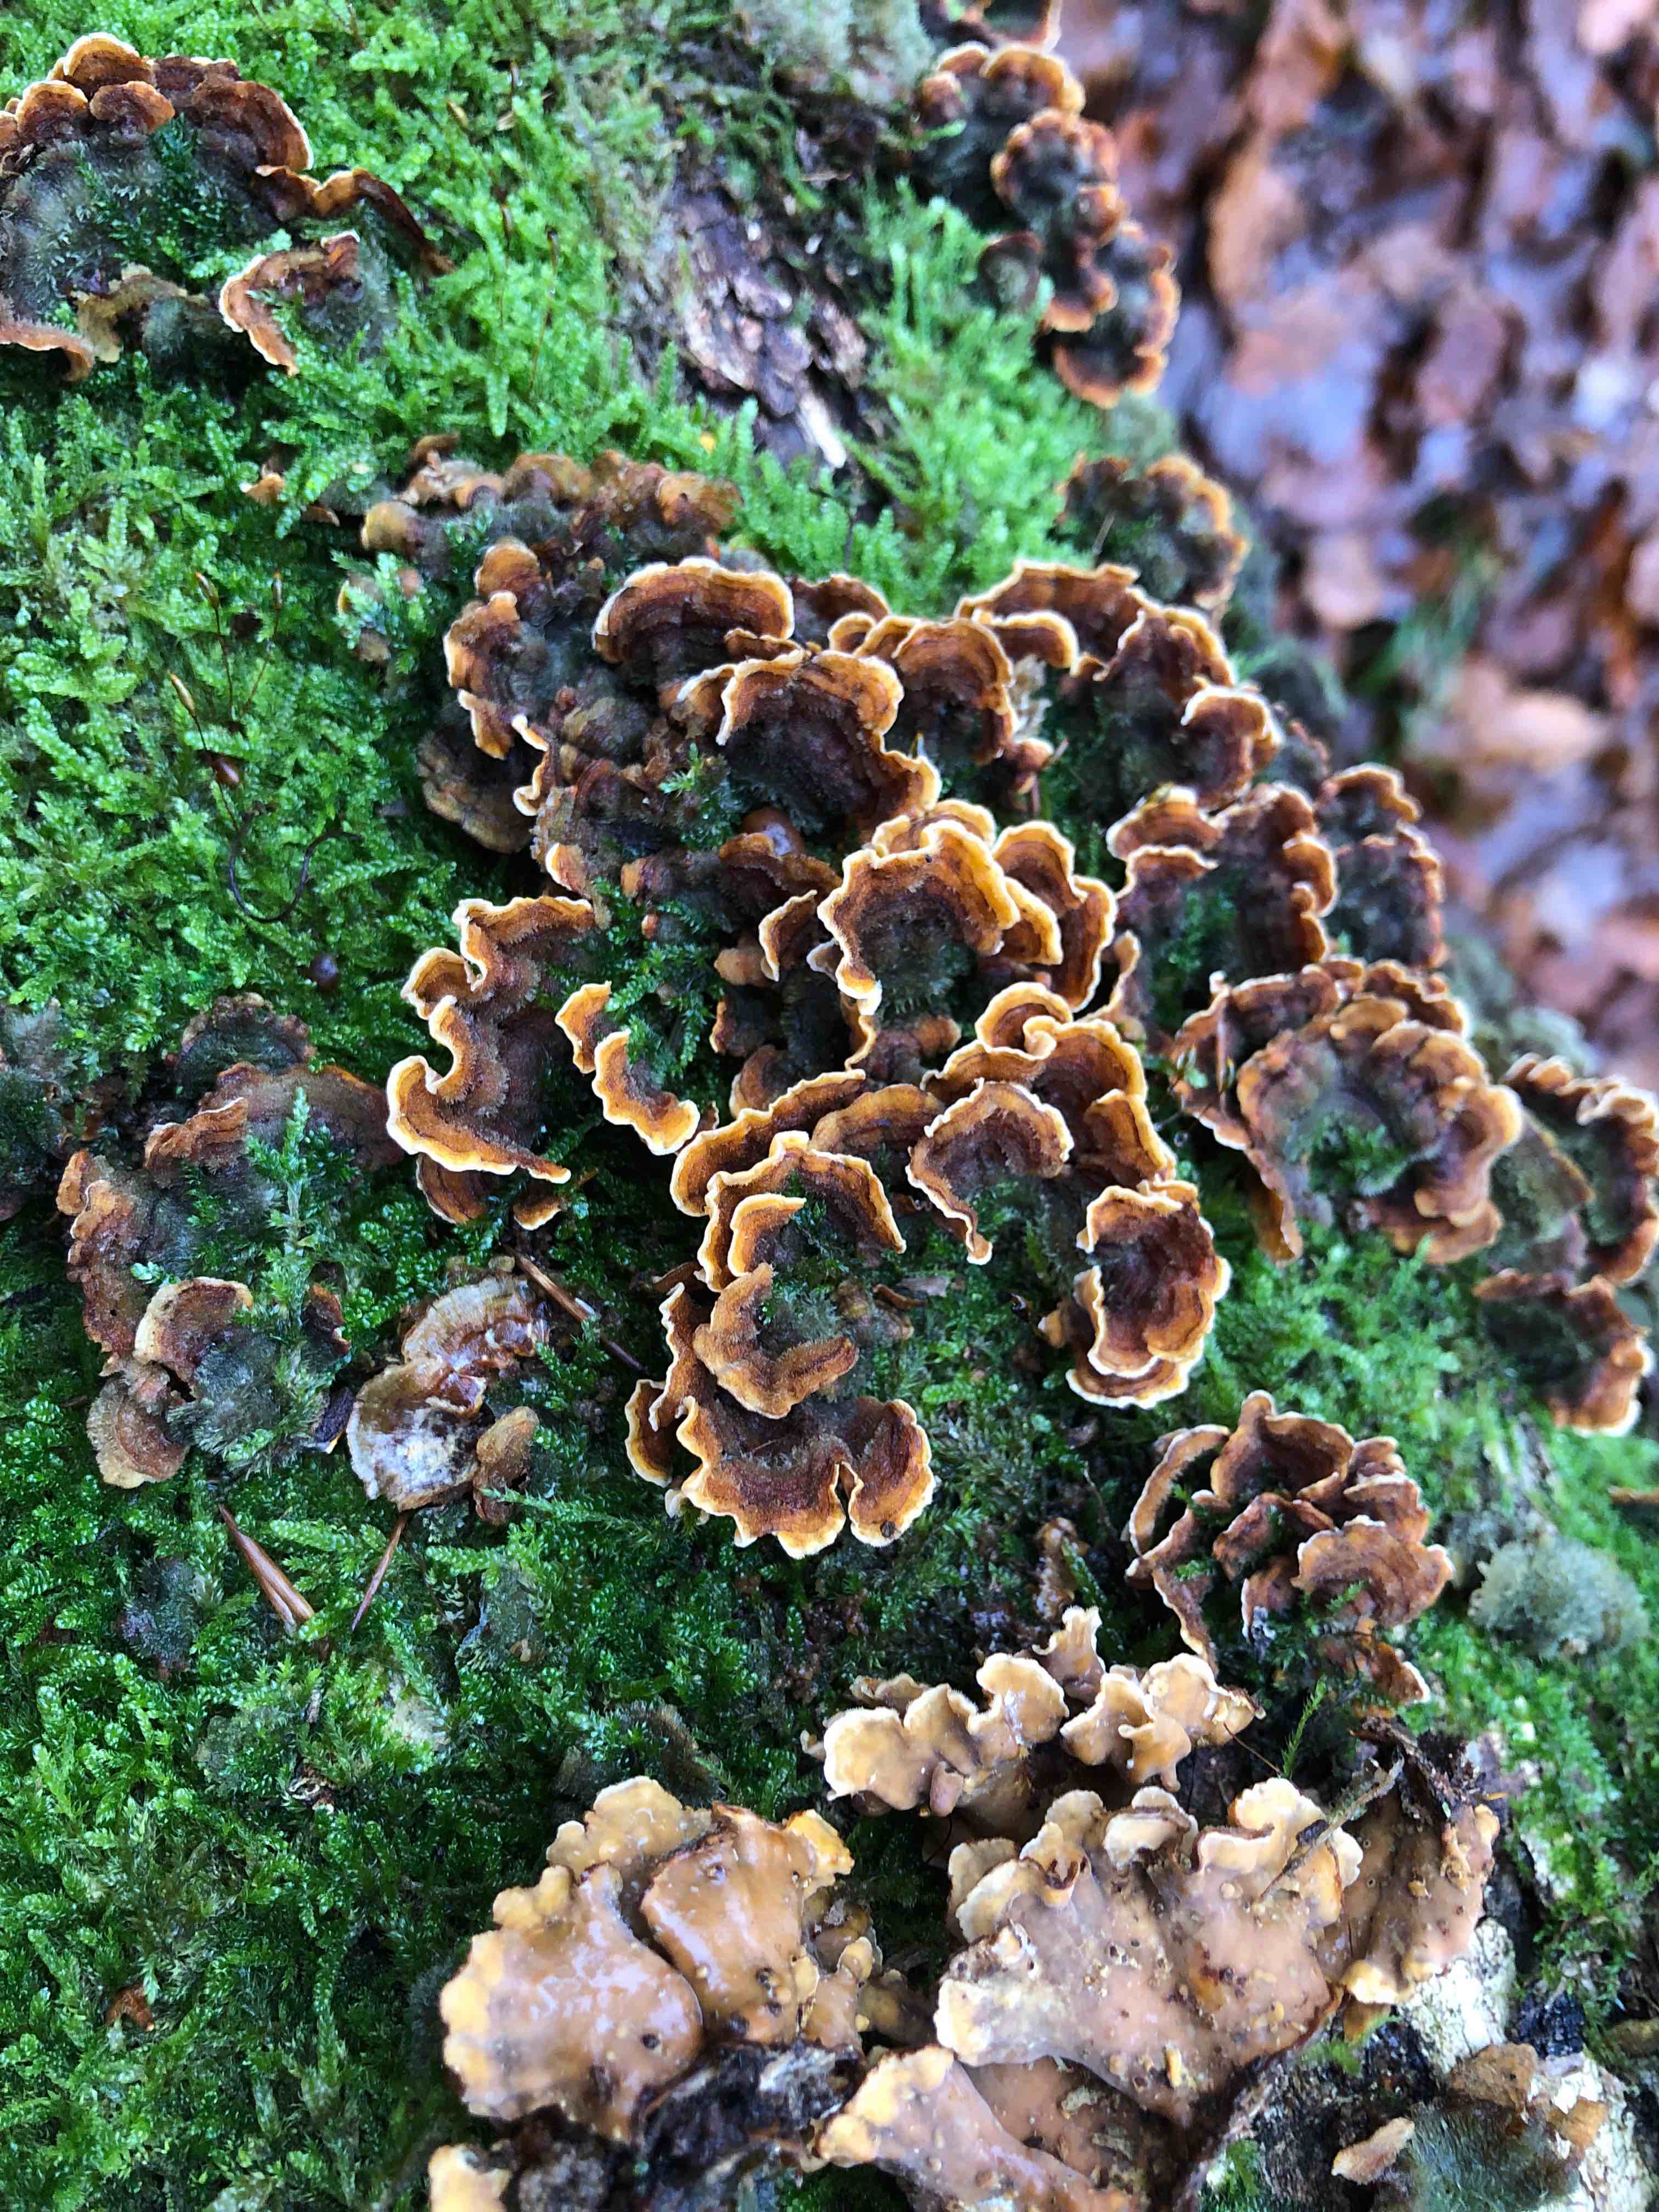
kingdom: Fungi
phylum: Basidiomycota
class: Agaricomycetes
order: Russulales
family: Stereaceae
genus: Stereum
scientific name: Stereum hirsutum
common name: håret lædersvamp
